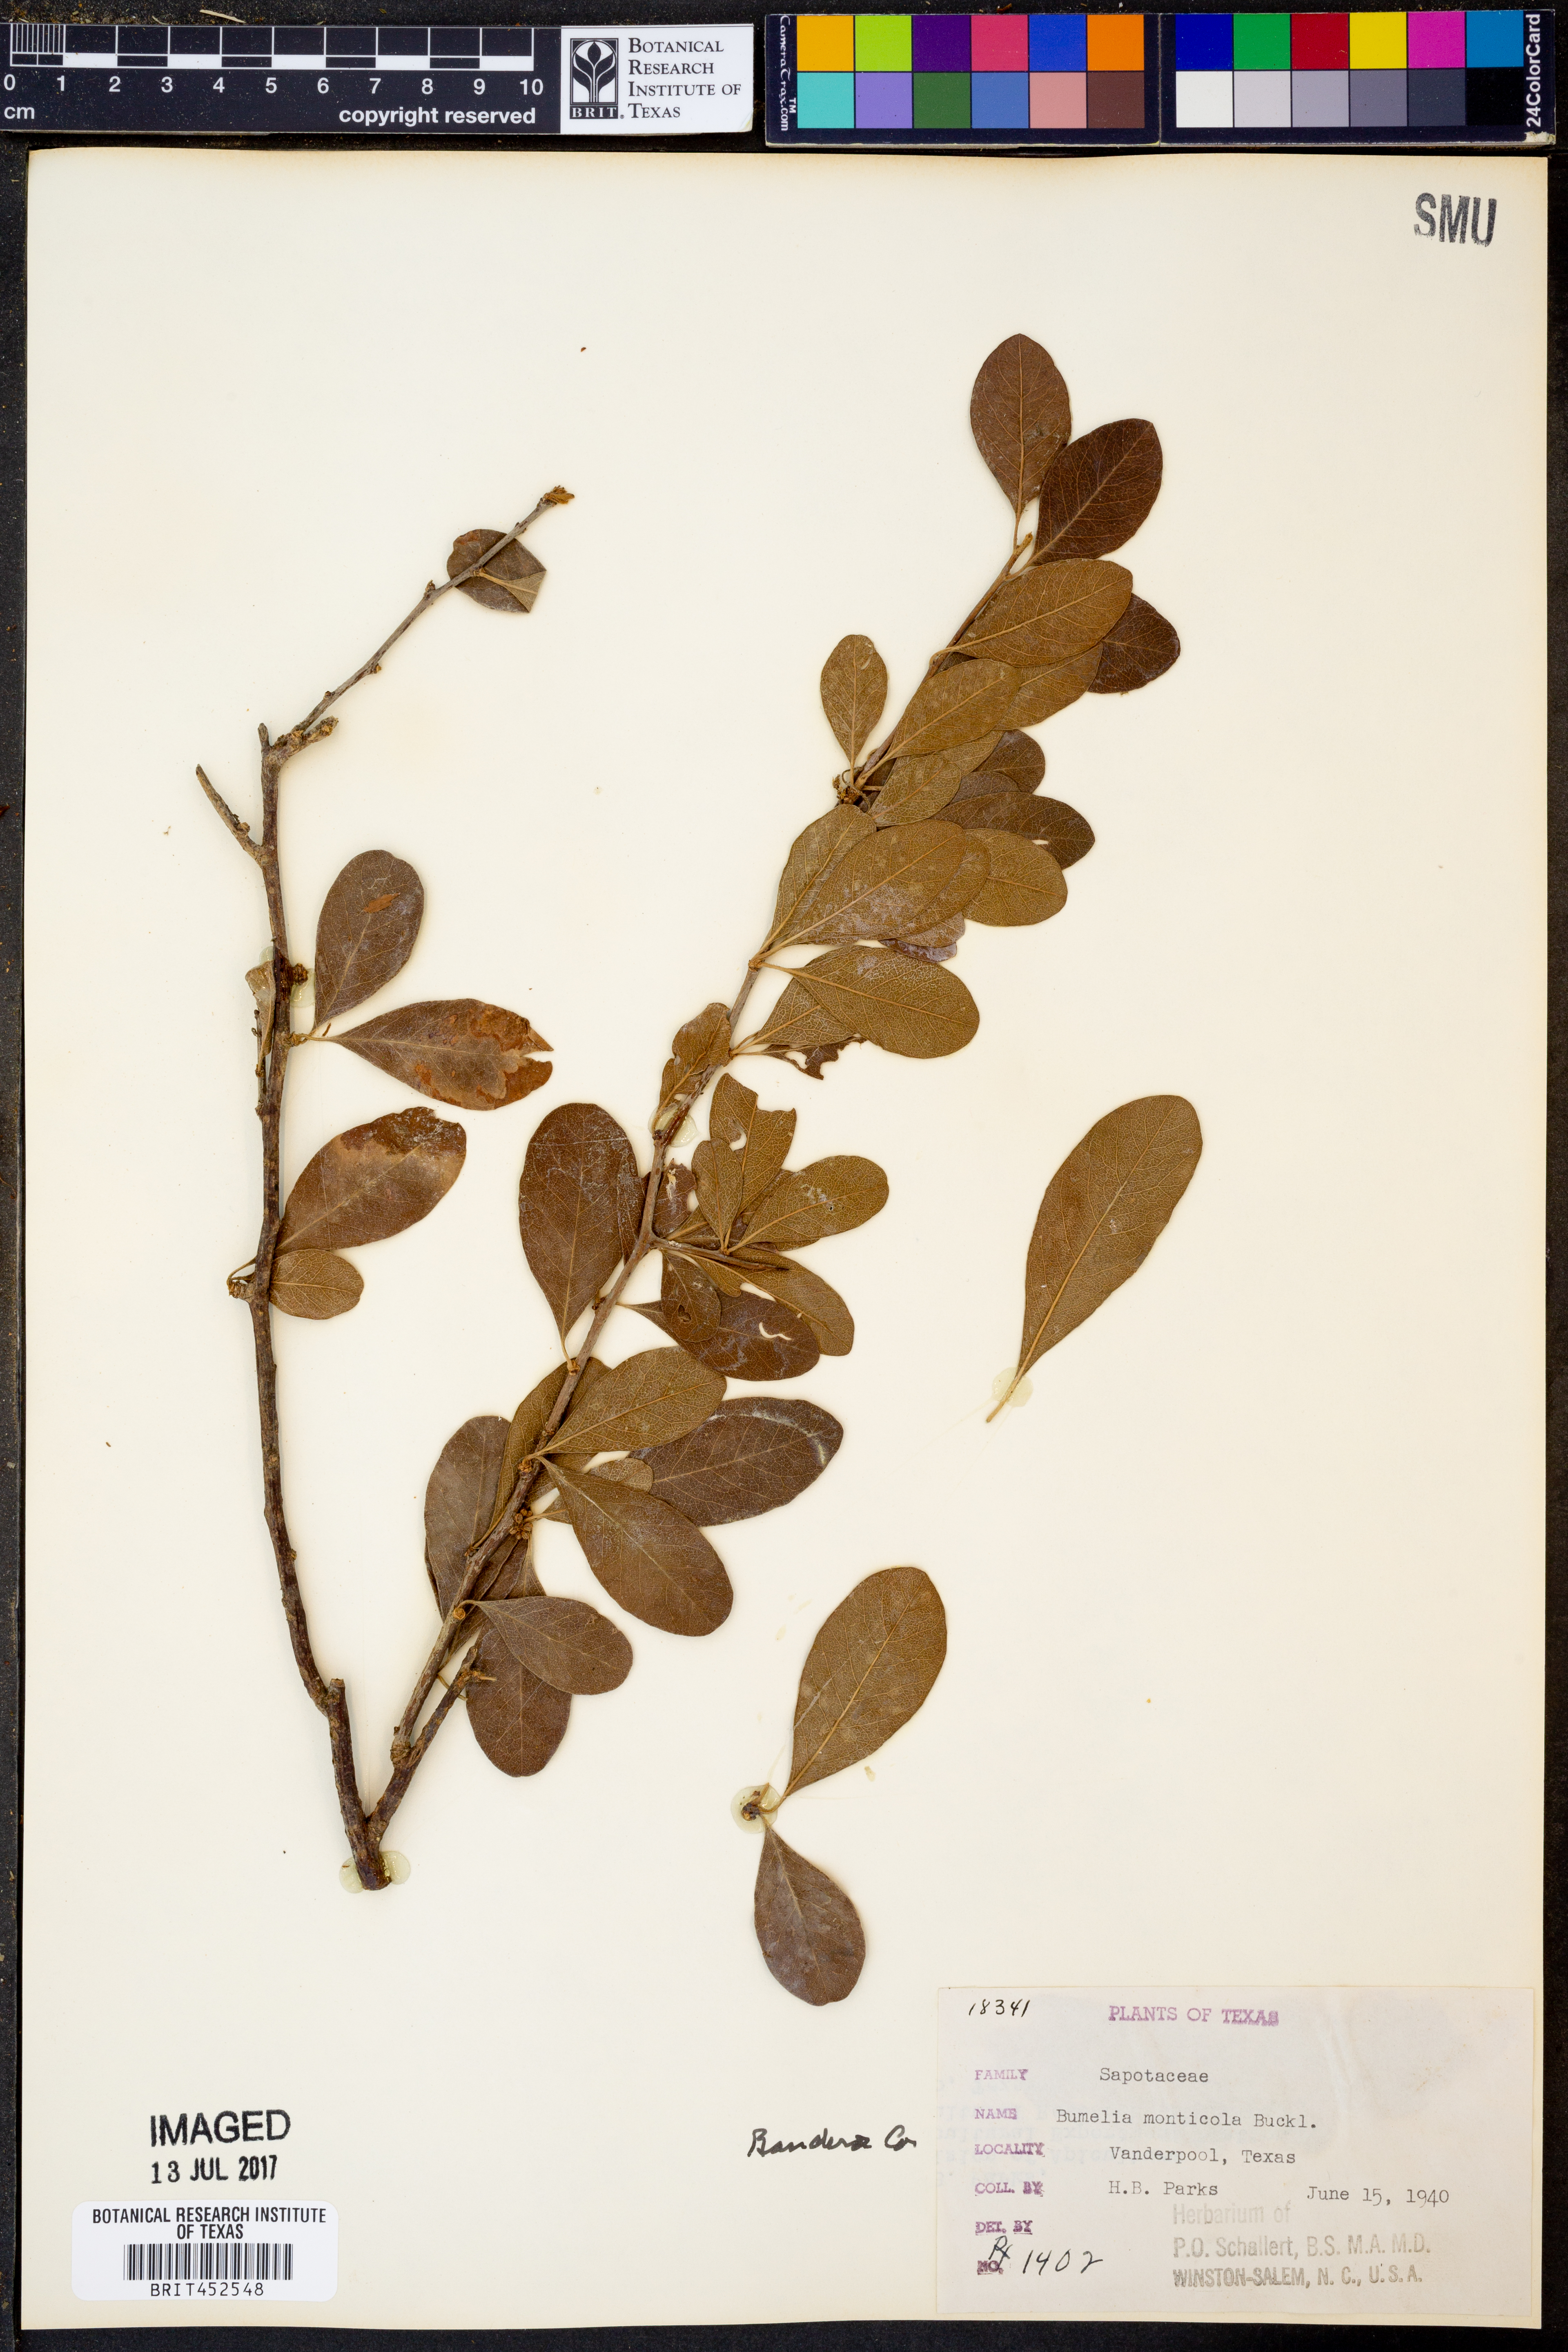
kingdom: Plantae
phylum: Tracheophyta
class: Magnoliopsida
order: Ericales
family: Sapotaceae
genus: Sideroxylon
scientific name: Sideroxylon lanuginosum
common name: Chittamwood
